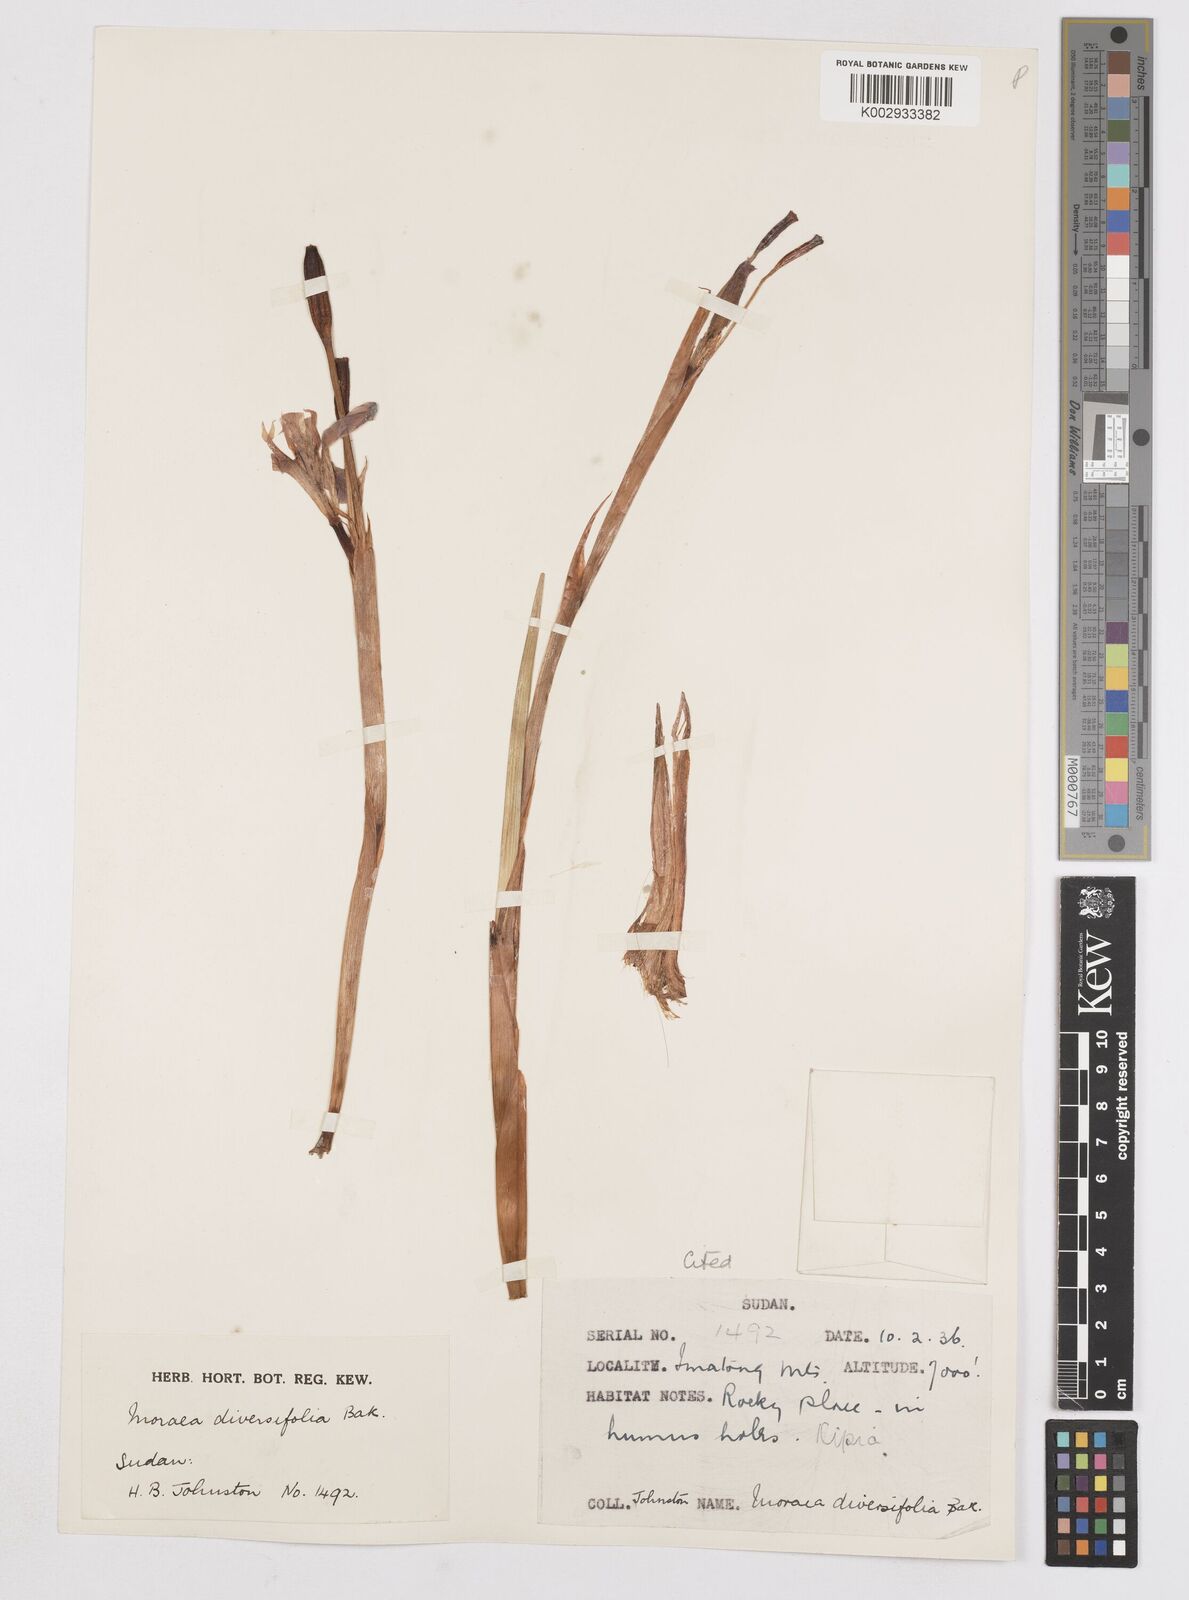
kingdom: Plantae
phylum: Tracheophyta
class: Liliopsida
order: Asparagales
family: Iridaceae
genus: Moraea
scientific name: Moraea schimperi
